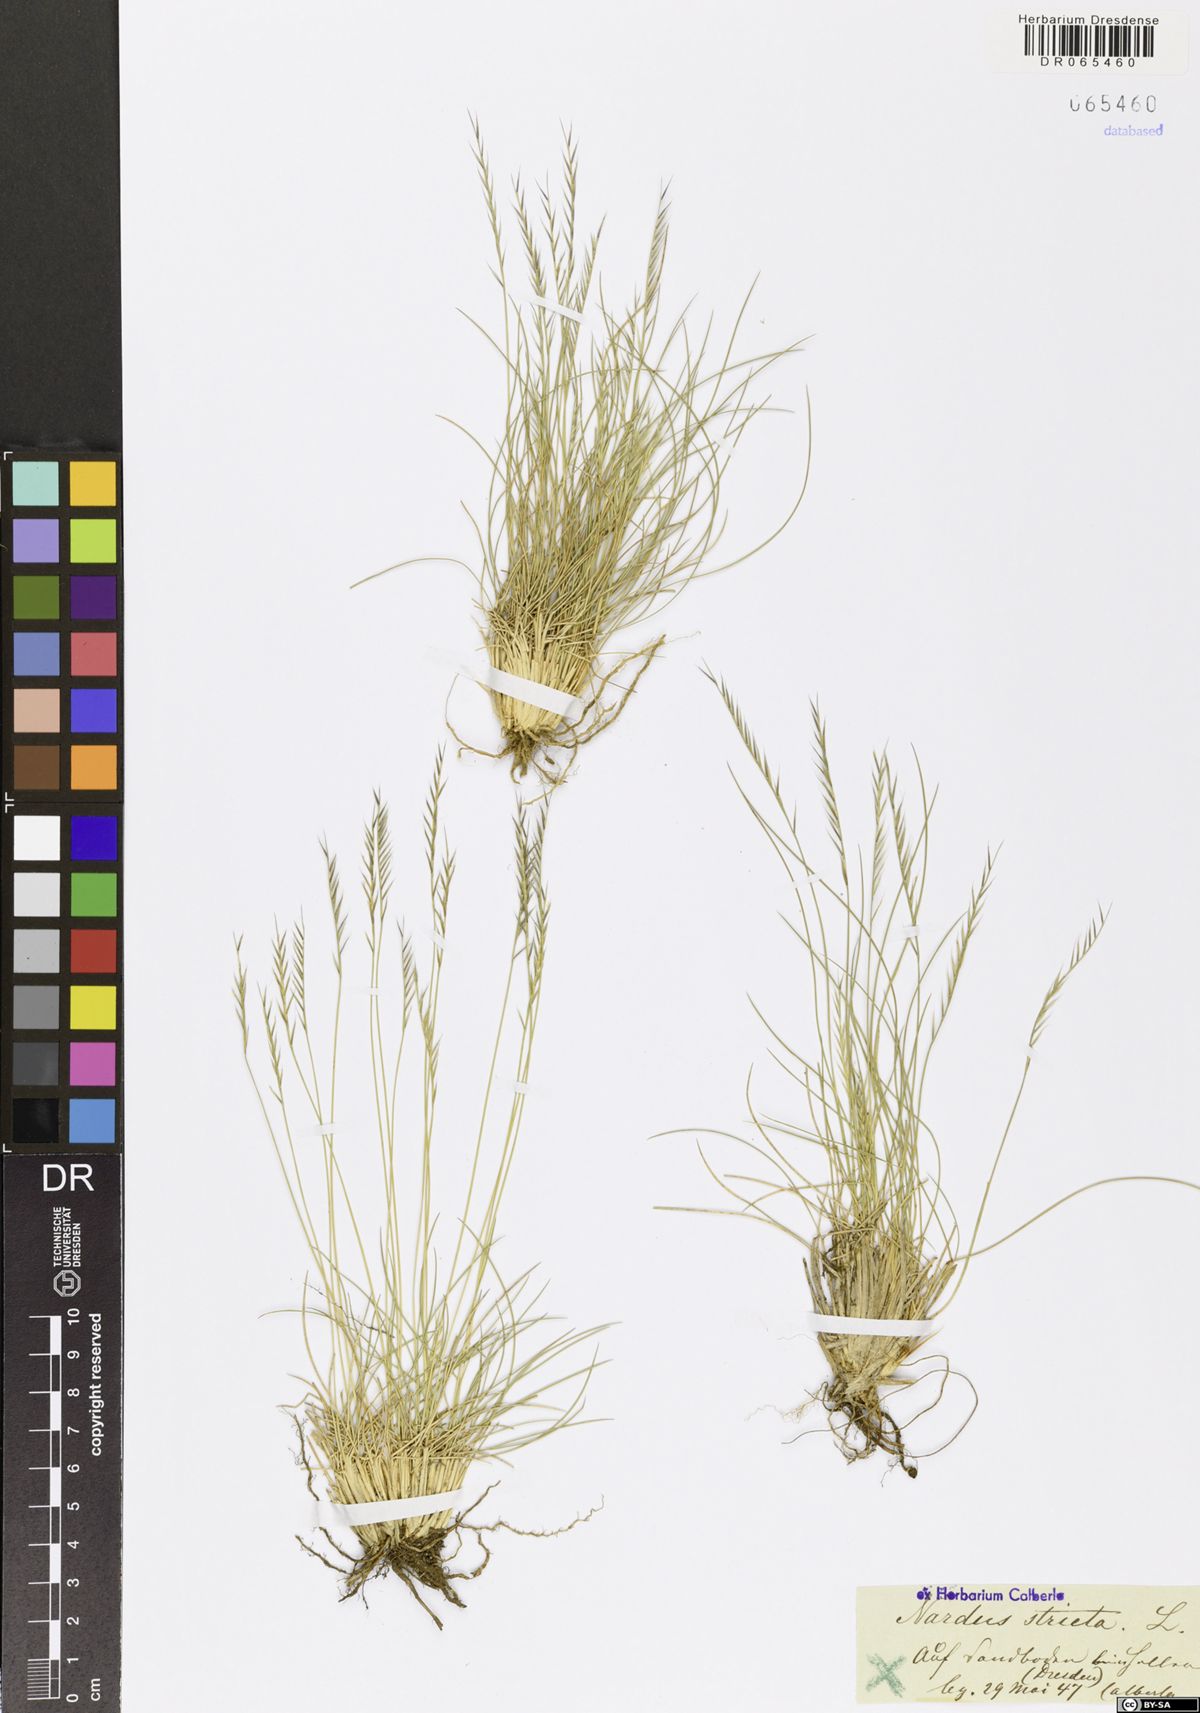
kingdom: Plantae
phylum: Tracheophyta
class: Liliopsida
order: Poales
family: Poaceae
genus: Nardus
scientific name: Nardus stricta
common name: Mat-grass
